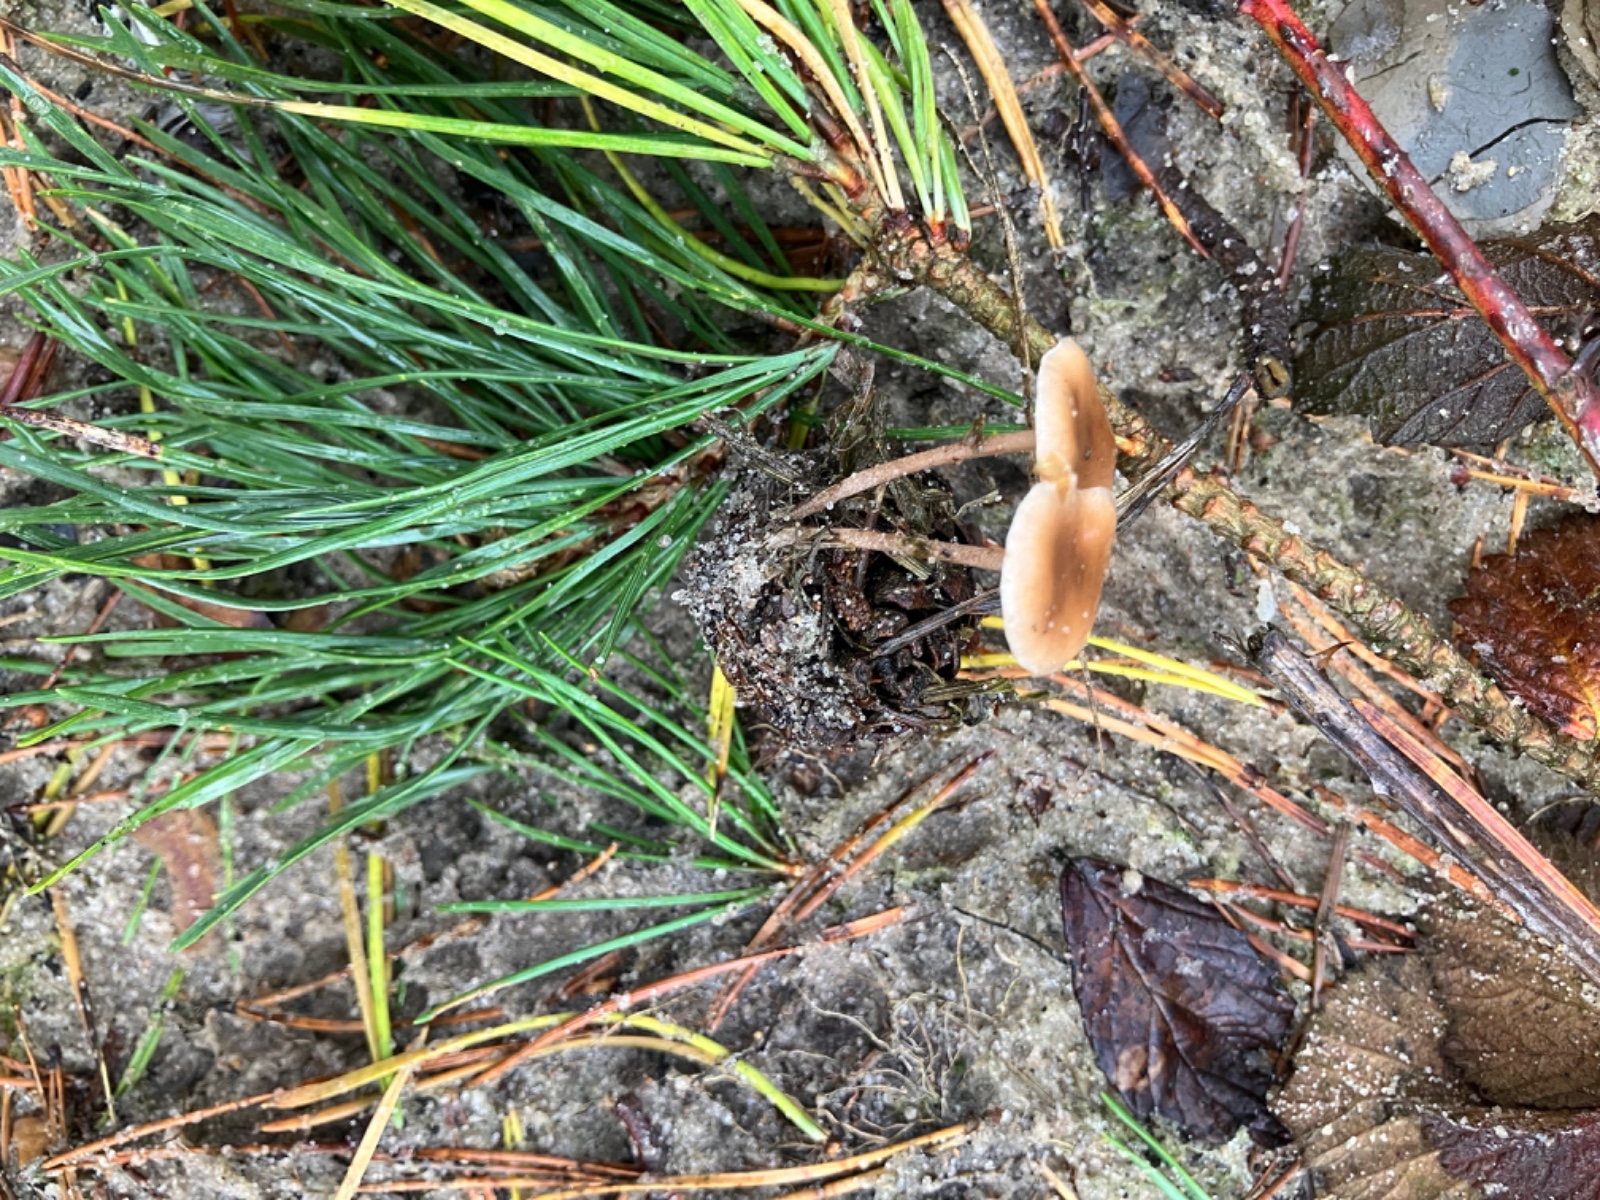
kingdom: Fungi
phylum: Basidiomycota
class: Agaricomycetes
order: Agaricales
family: Marasmiaceae
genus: Baeospora
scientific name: Baeospora myosura
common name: koglebruskhat
